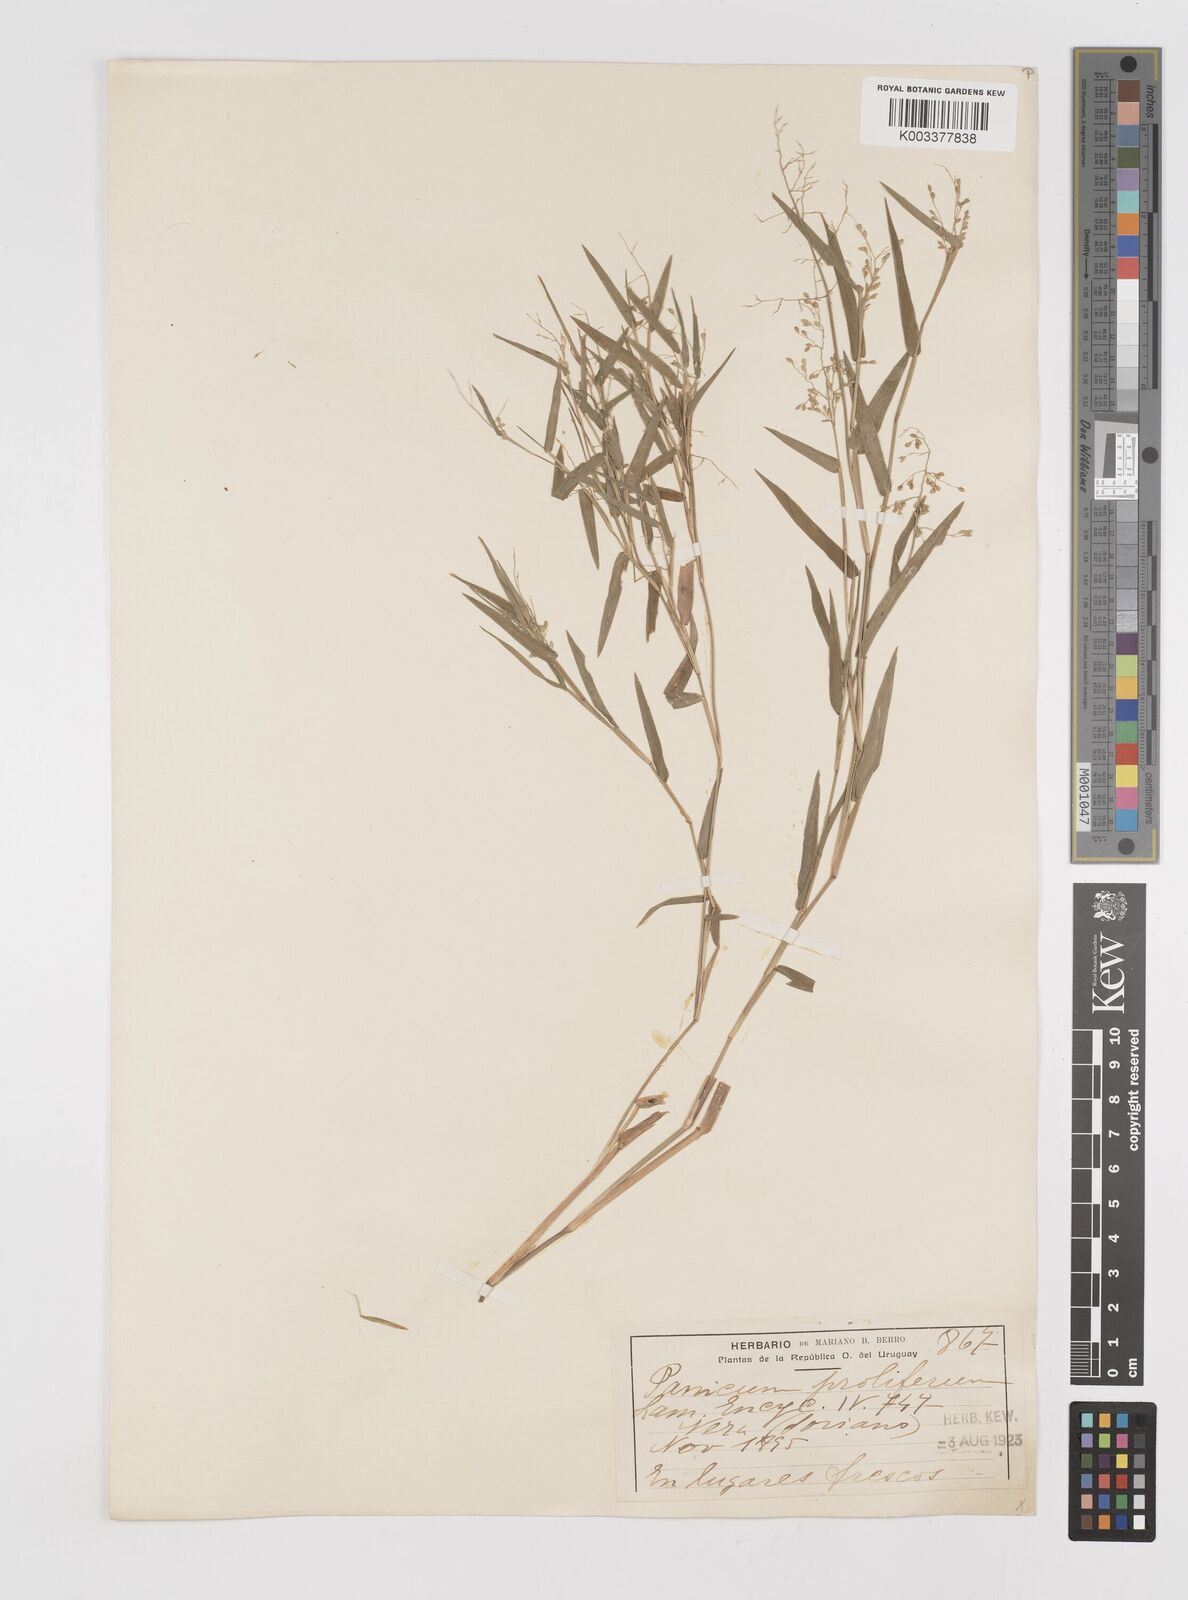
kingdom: Plantae
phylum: Tracheophyta
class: Liliopsida
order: Poales
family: Poaceae
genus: Dichanthelium
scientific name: Dichanthelium sabulorum
